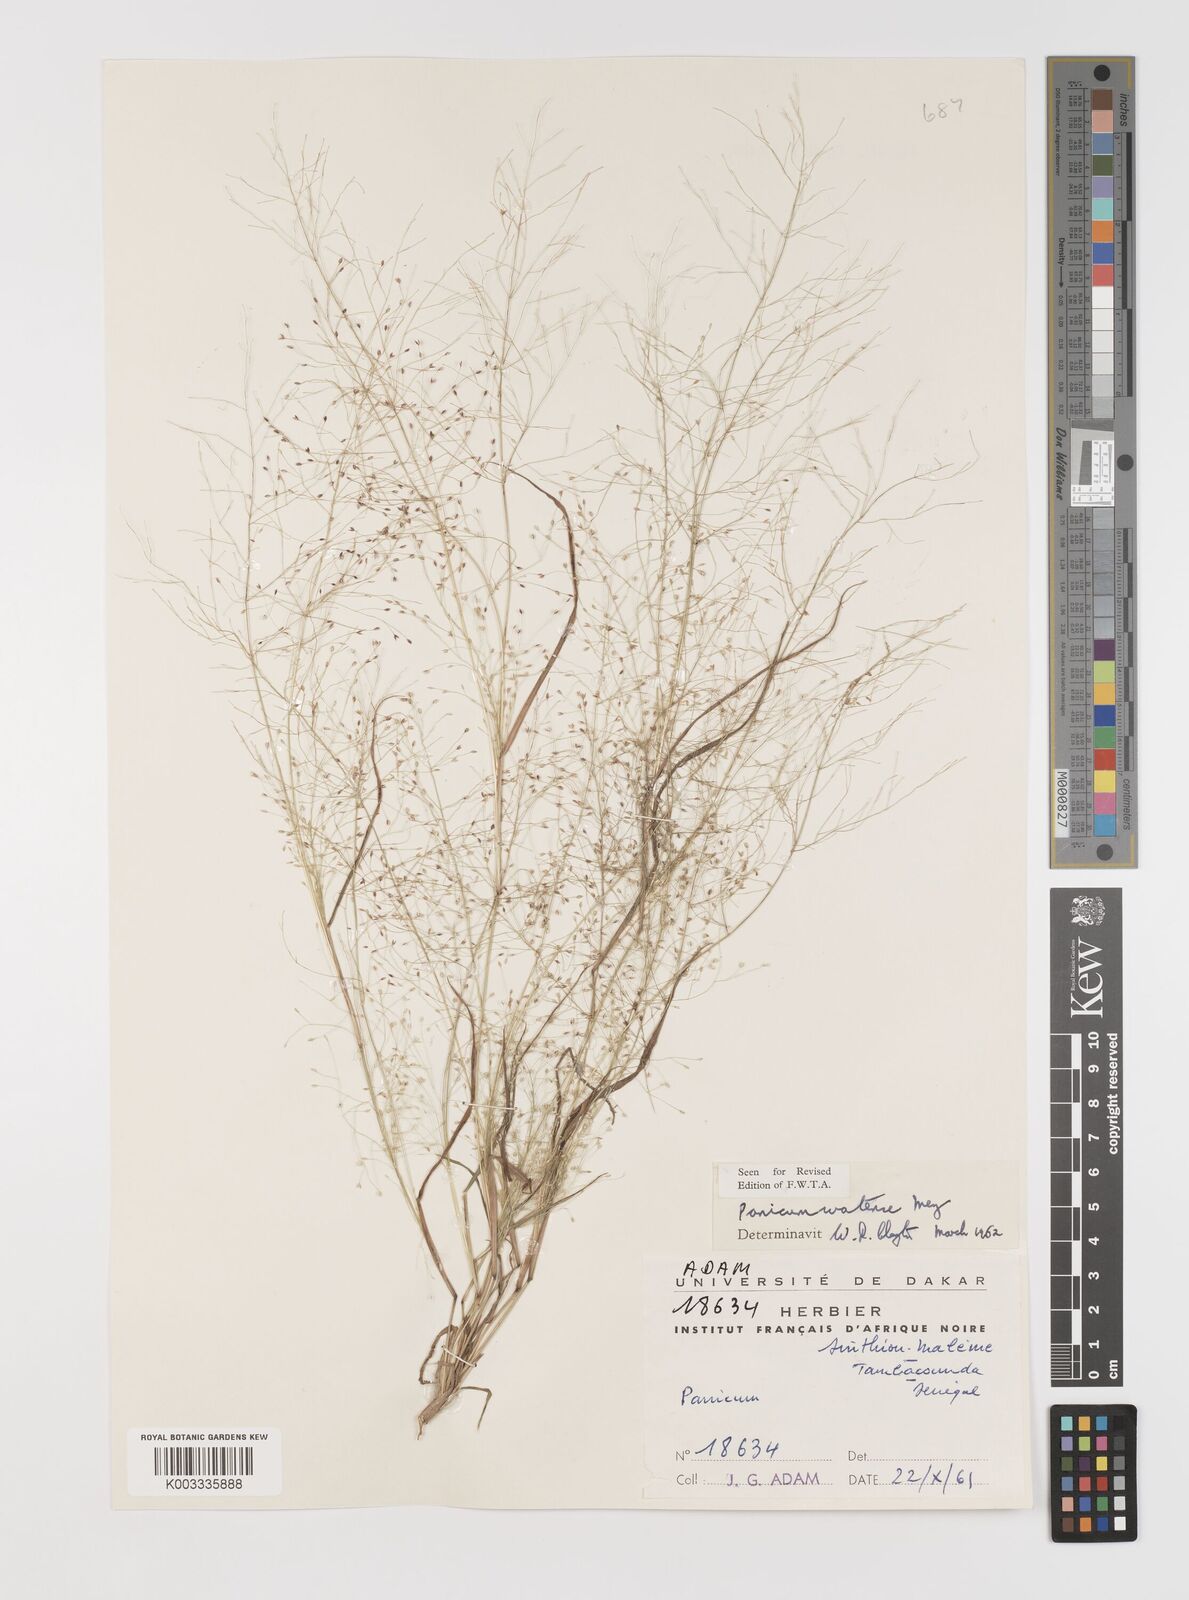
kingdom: Plantae
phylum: Tracheophyta
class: Liliopsida
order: Poales
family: Poaceae
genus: Panicum
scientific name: Panicum humile
